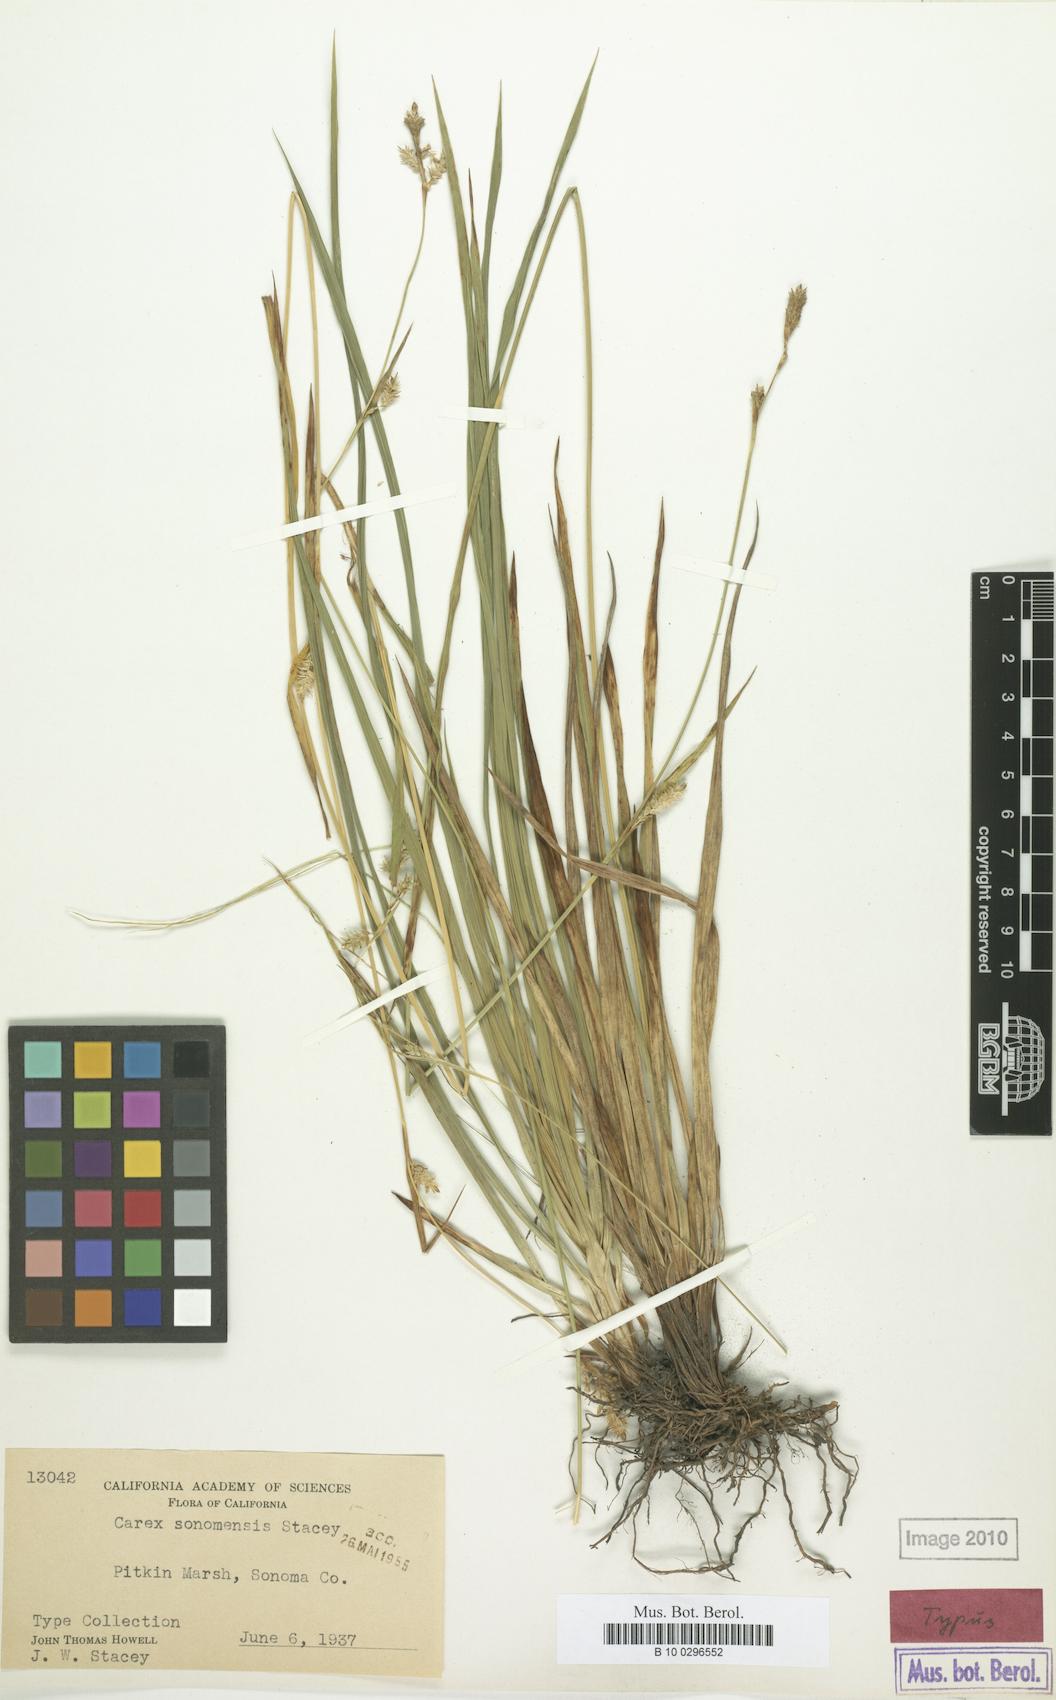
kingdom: Plantae
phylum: Tracheophyta
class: Liliopsida
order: Poales
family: Cyperaceae
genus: Carex
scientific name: Carex lemmonii
